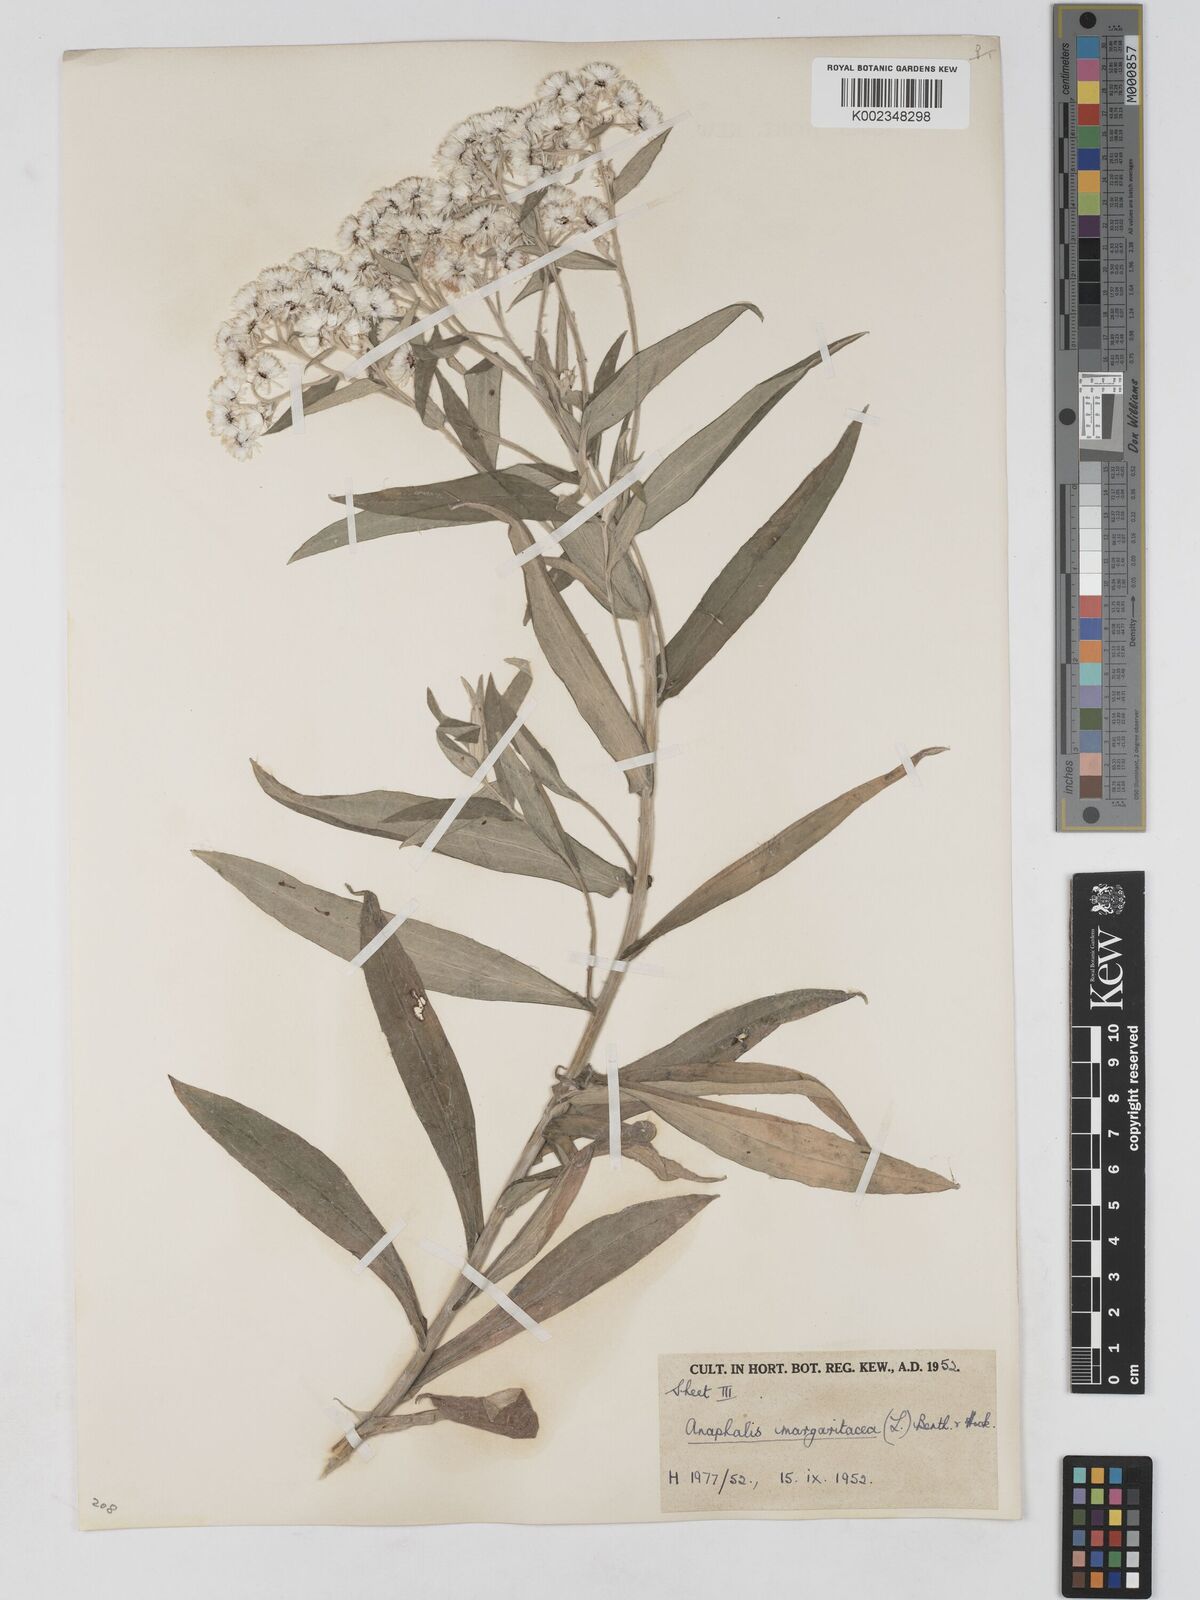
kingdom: Plantae
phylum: Tracheophyta
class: Magnoliopsida
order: Asterales
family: Asteraceae
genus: Anaphalis
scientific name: Anaphalis margaritacea
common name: Pearly everlasting
